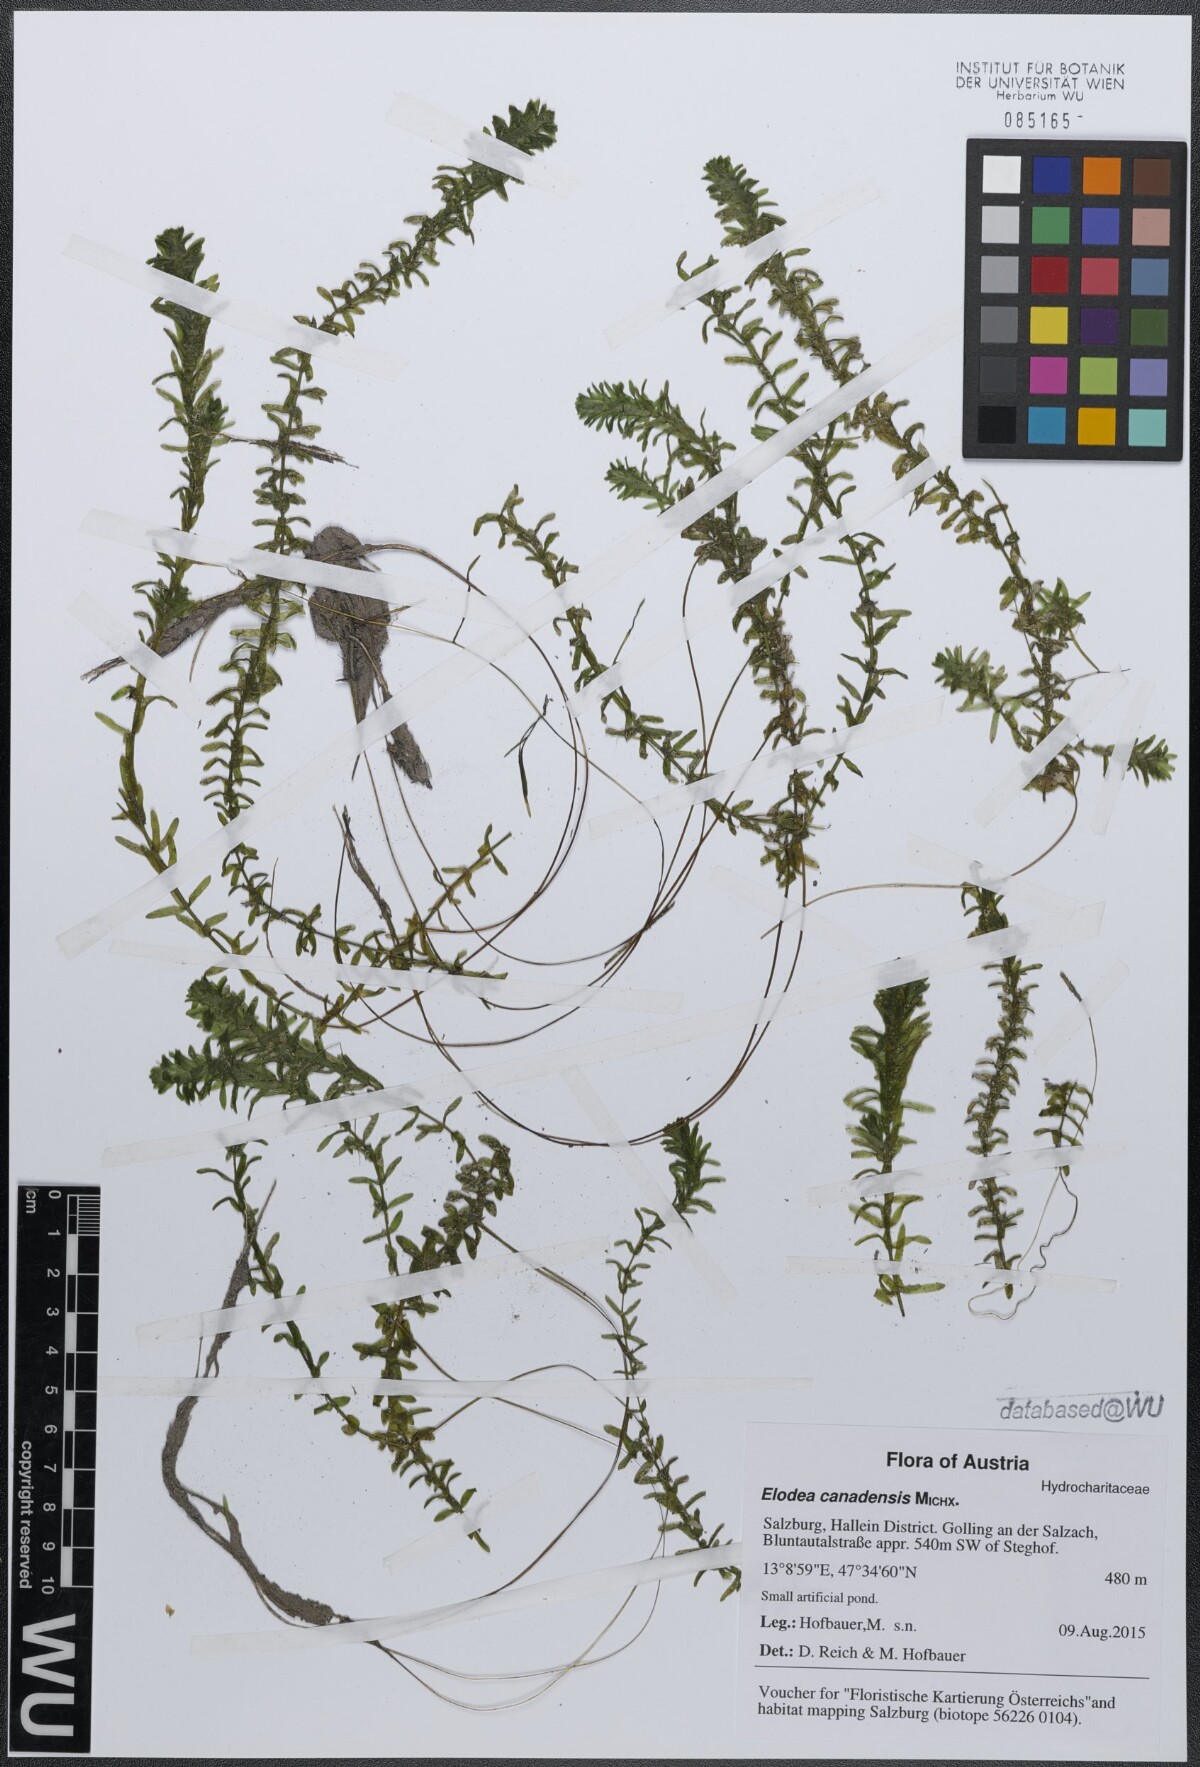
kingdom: Plantae
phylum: Tracheophyta
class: Liliopsida
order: Alismatales
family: Hydrocharitaceae
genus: Elodea
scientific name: Elodea canadensis
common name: Canadian waterweed
